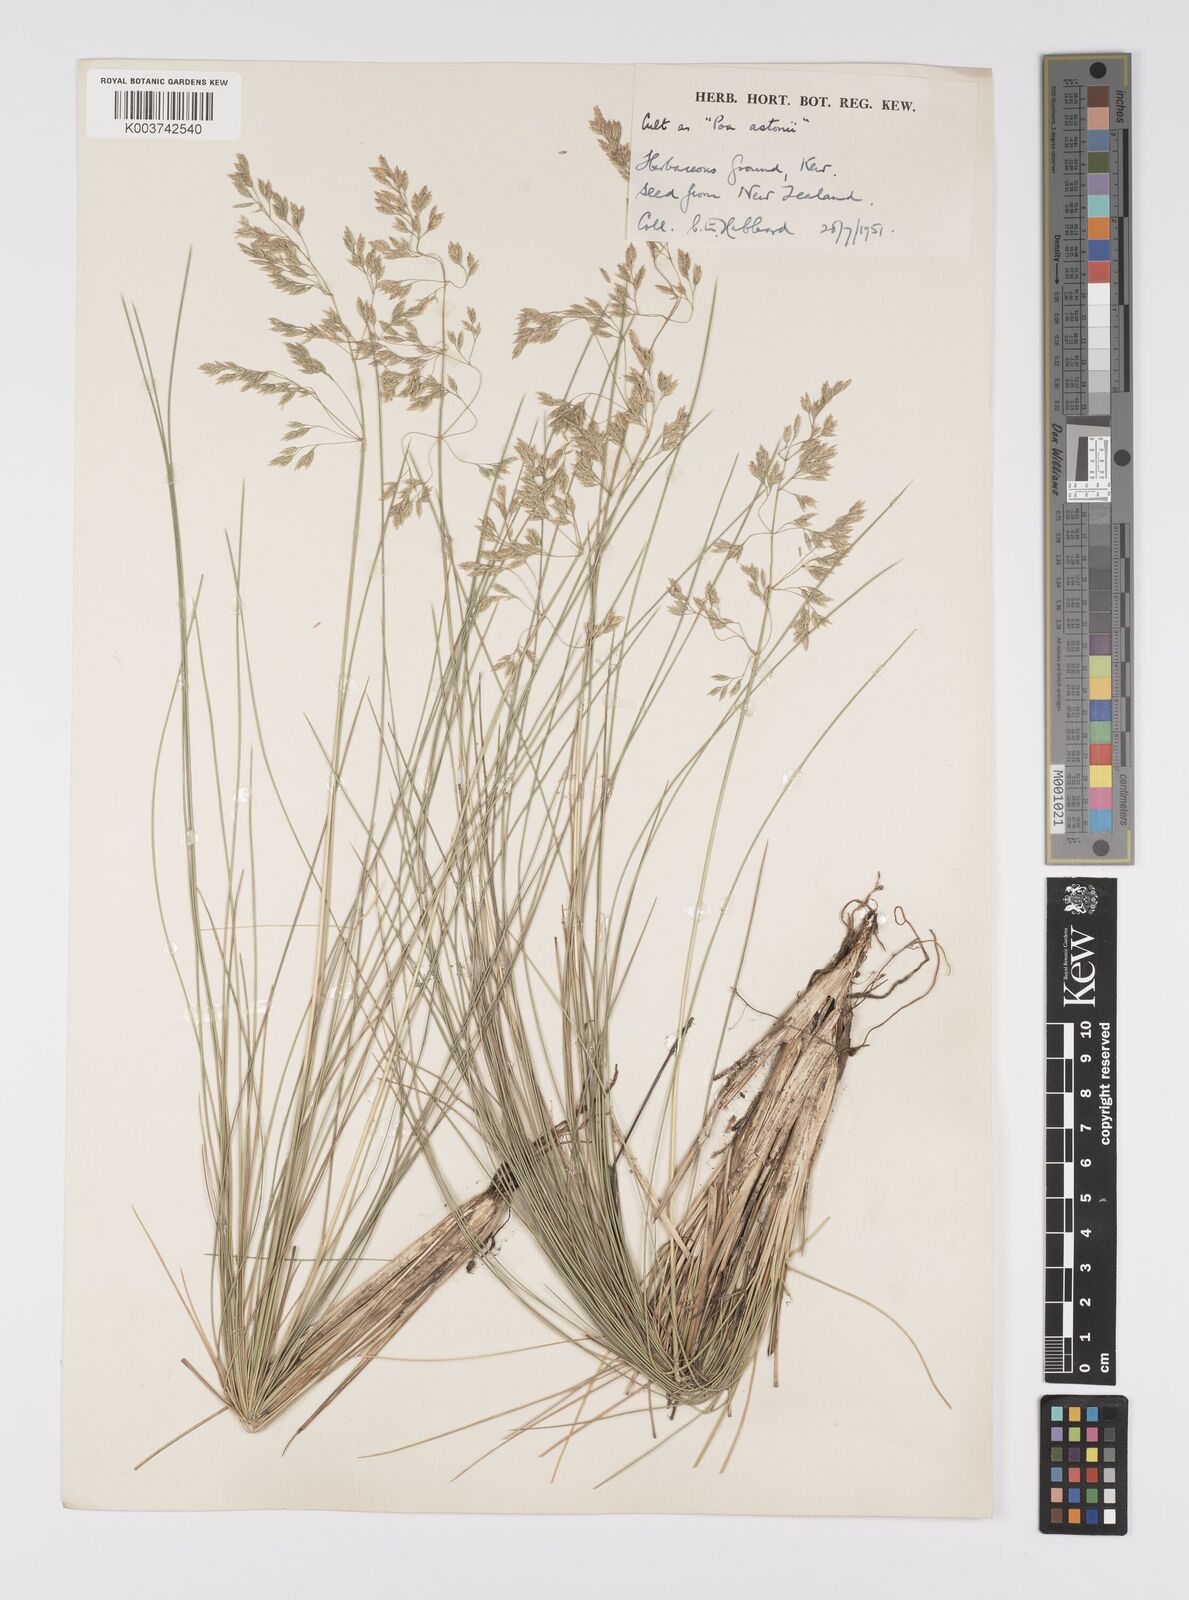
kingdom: Plantae
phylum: Tracheophyta
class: Liliopsida
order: Poales
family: Poaceae
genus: Poa
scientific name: Poa astonii
